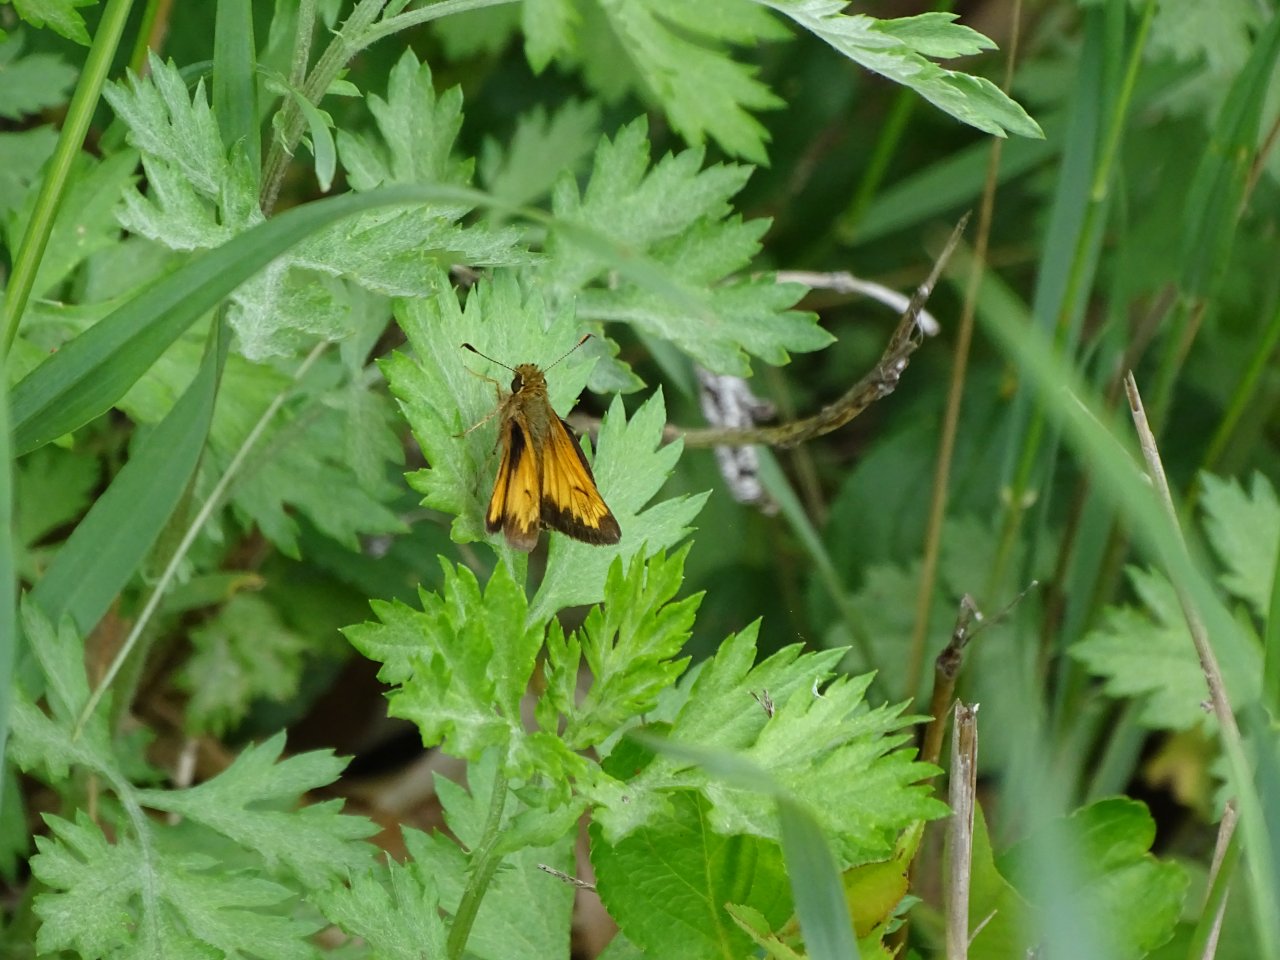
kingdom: Animalia
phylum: Arthropoda
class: Insecta
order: Lepidoptera
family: Hesperiidae
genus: Lon
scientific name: Lon hobomok
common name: Hobomok Skipper
